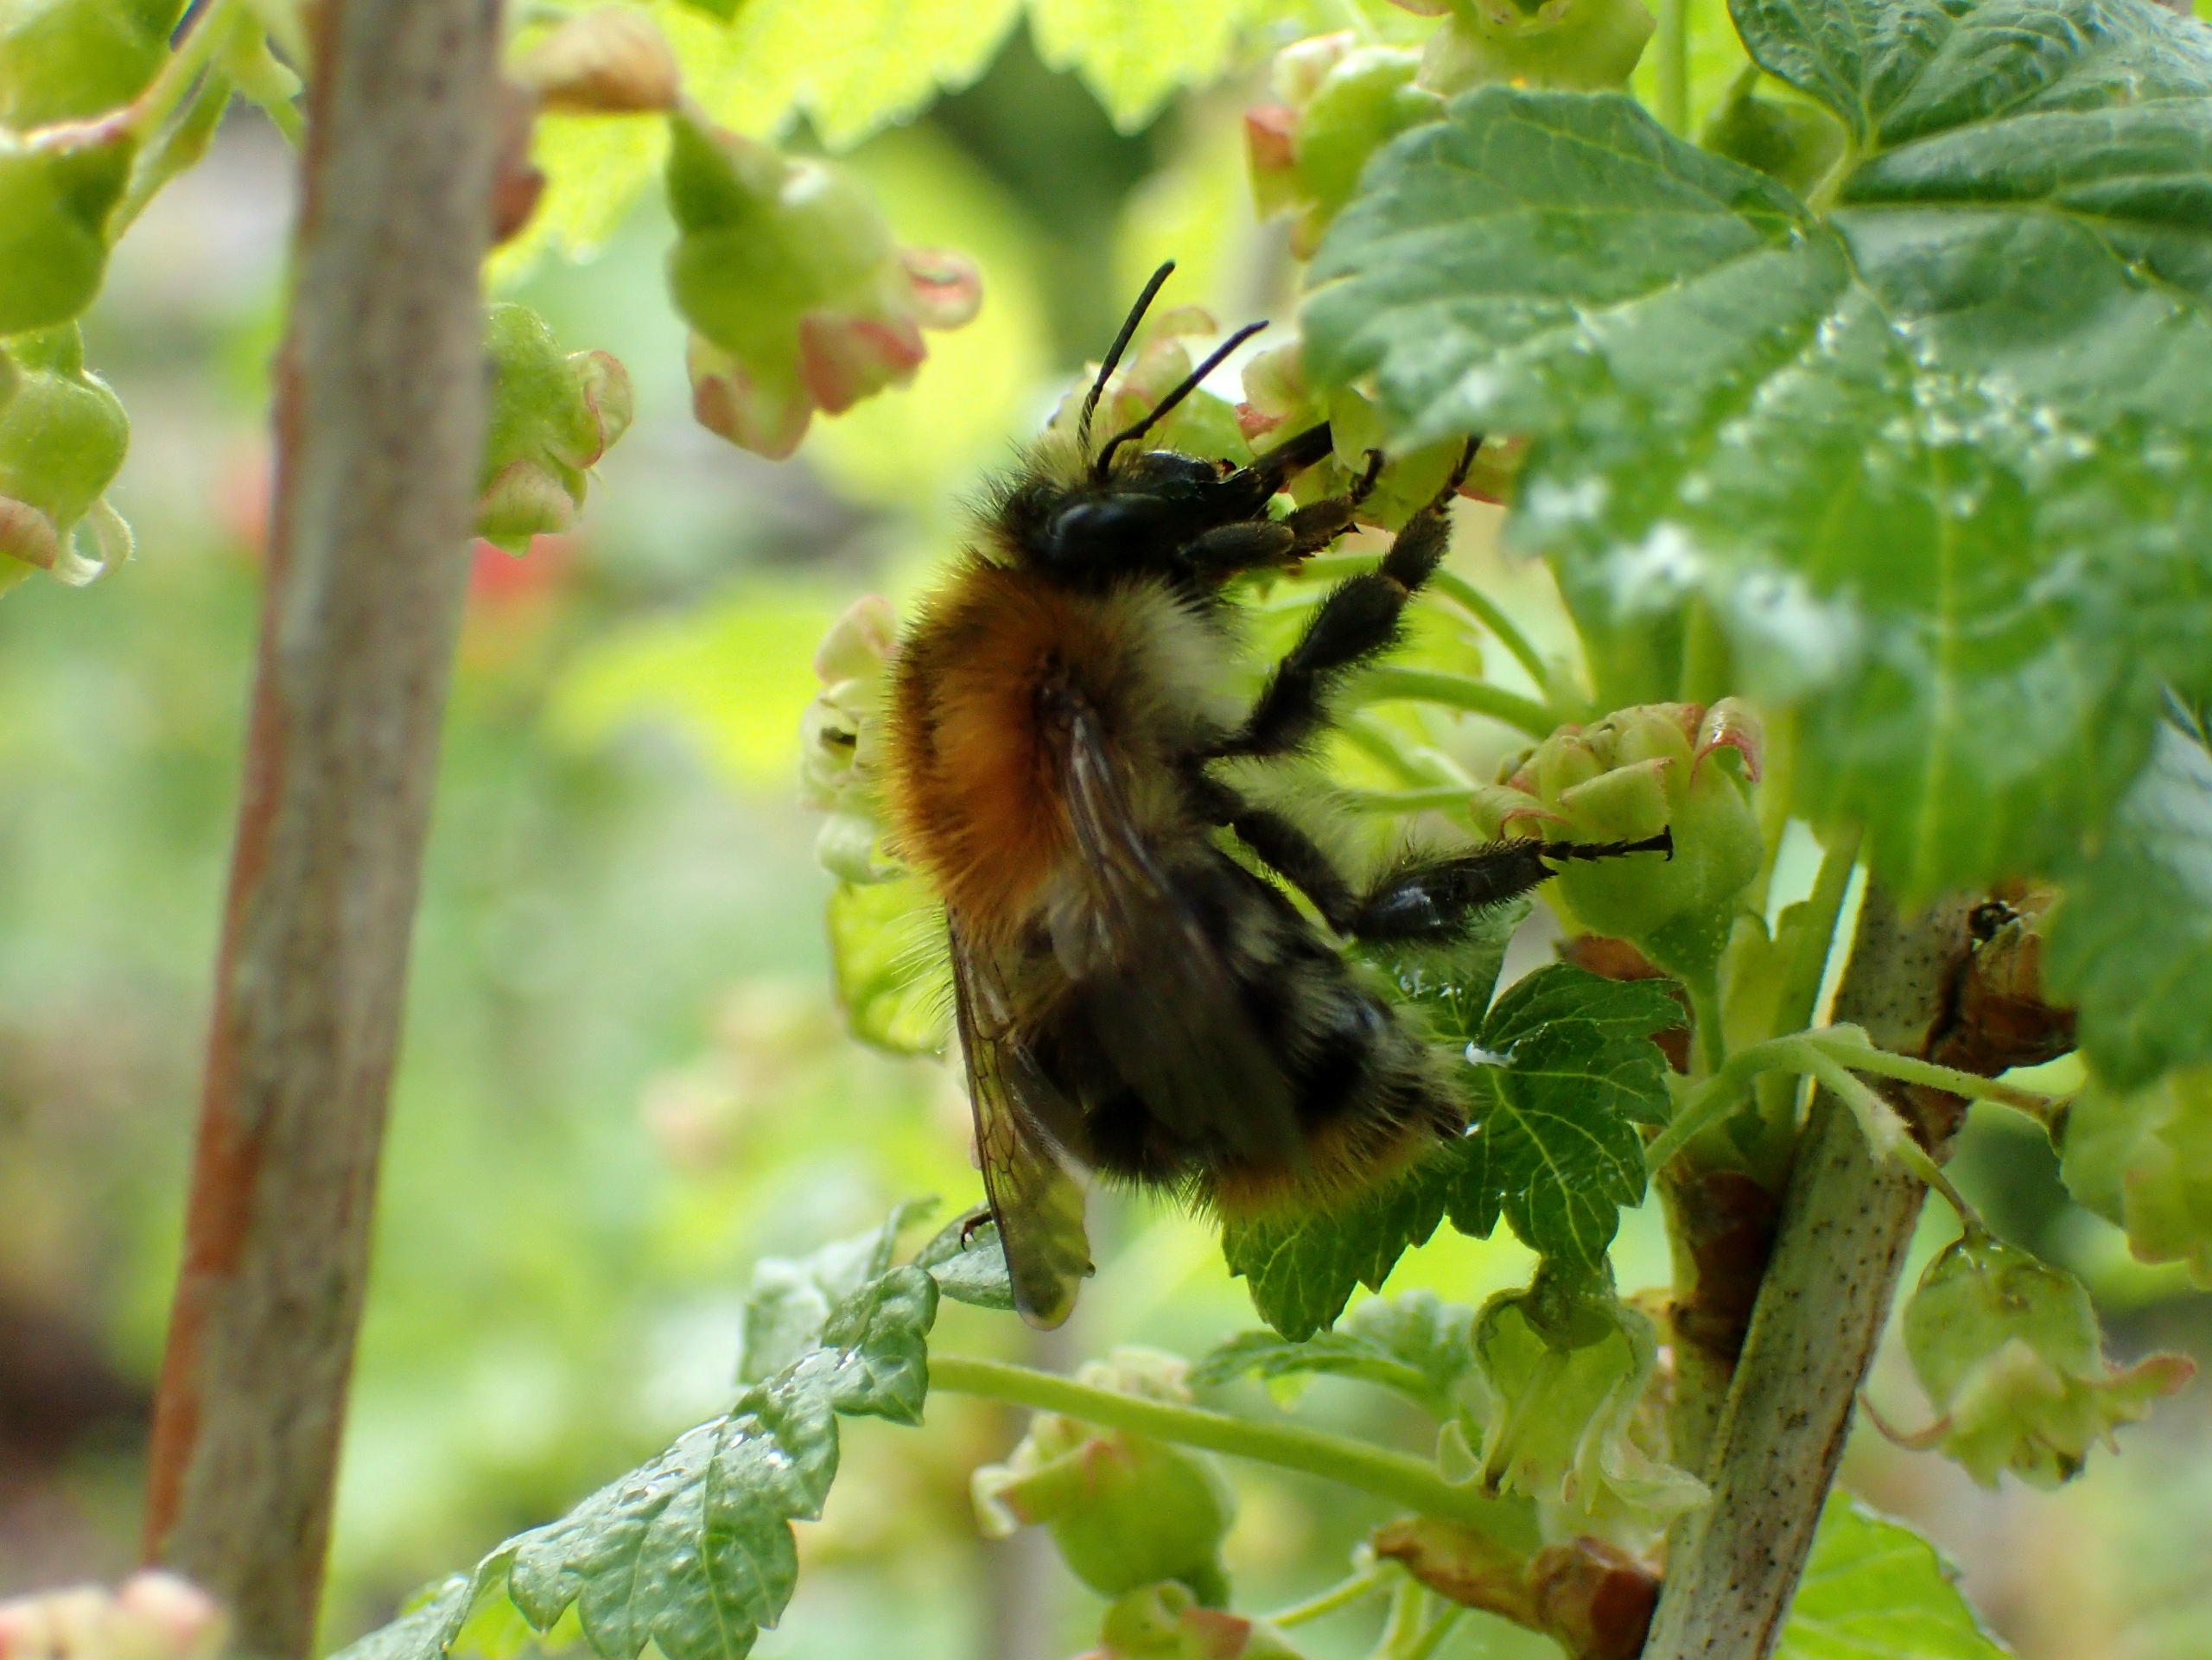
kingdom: Animalia
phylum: Arthropoda
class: Insecta
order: Hymenoptera
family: Apidae
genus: Bombus
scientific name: Bombus pascuorum
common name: Agerhumle
